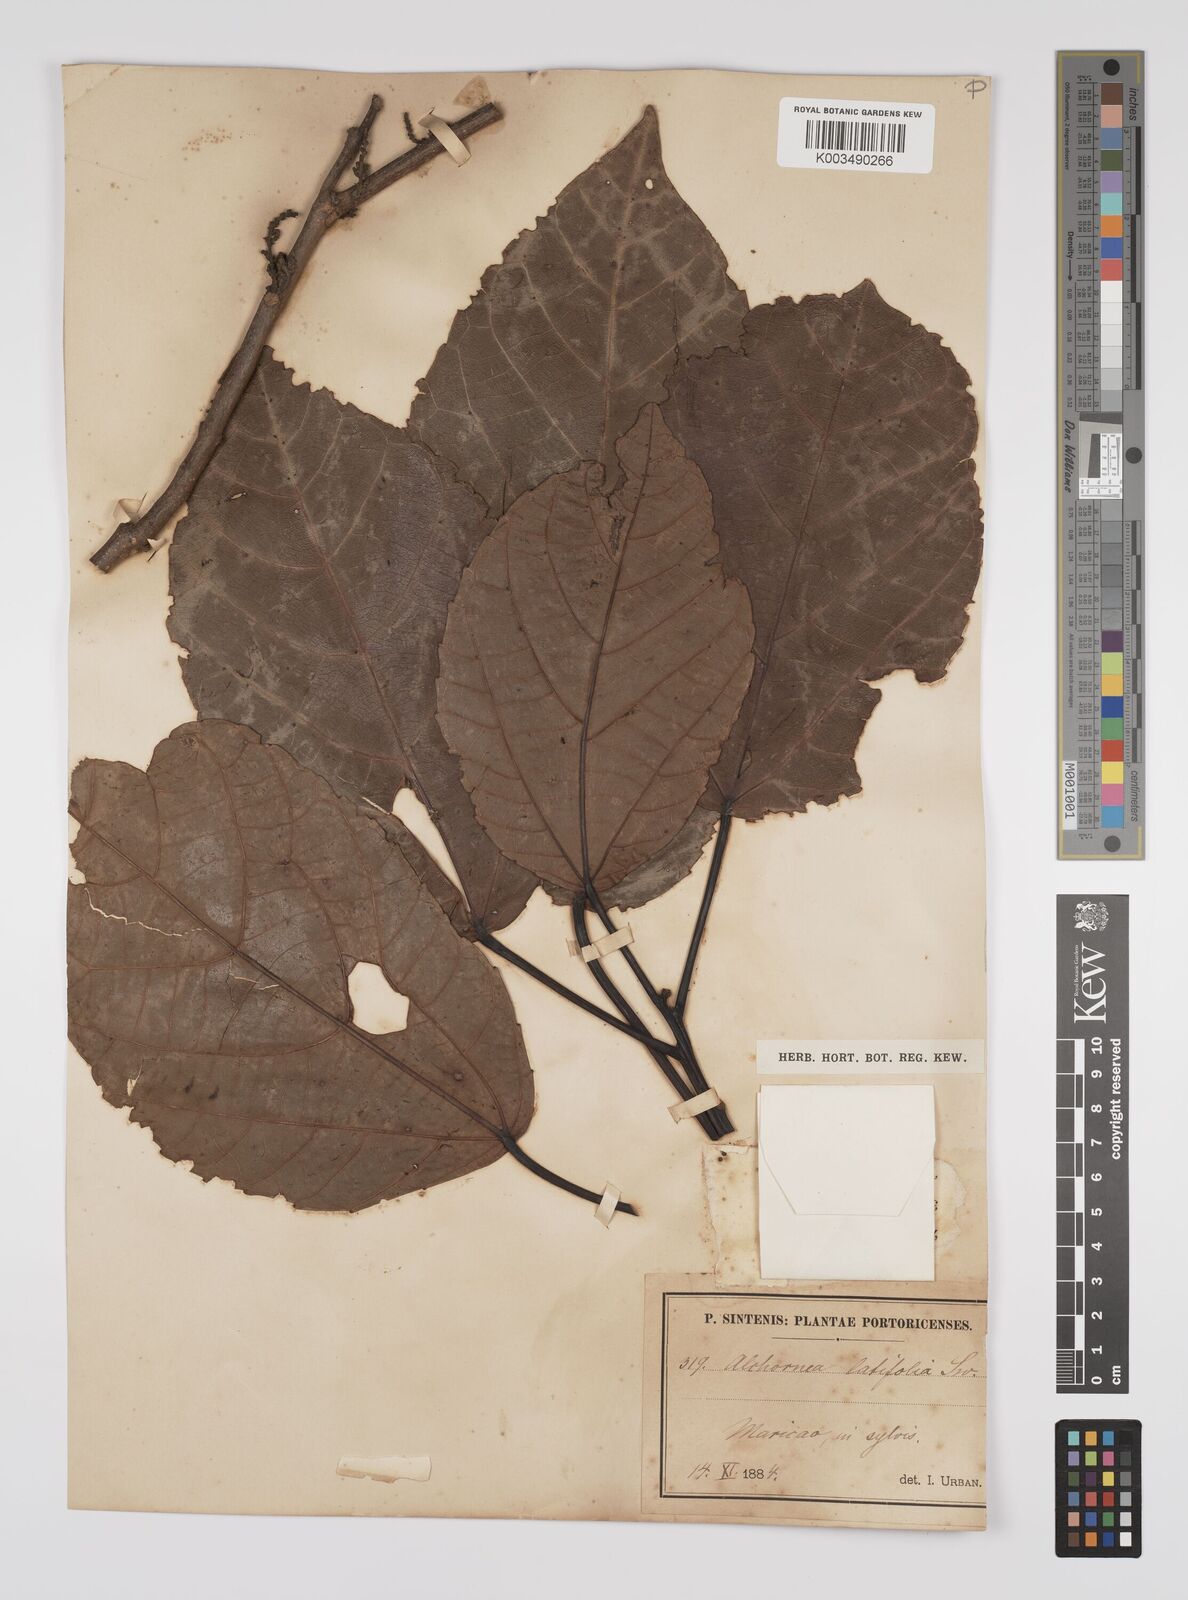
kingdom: Plantae
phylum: Tracheophyta
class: Magnoliopsida
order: Malpighiales
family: Euphorbiaceae
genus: Alchornea
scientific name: Alchornea latifolia
